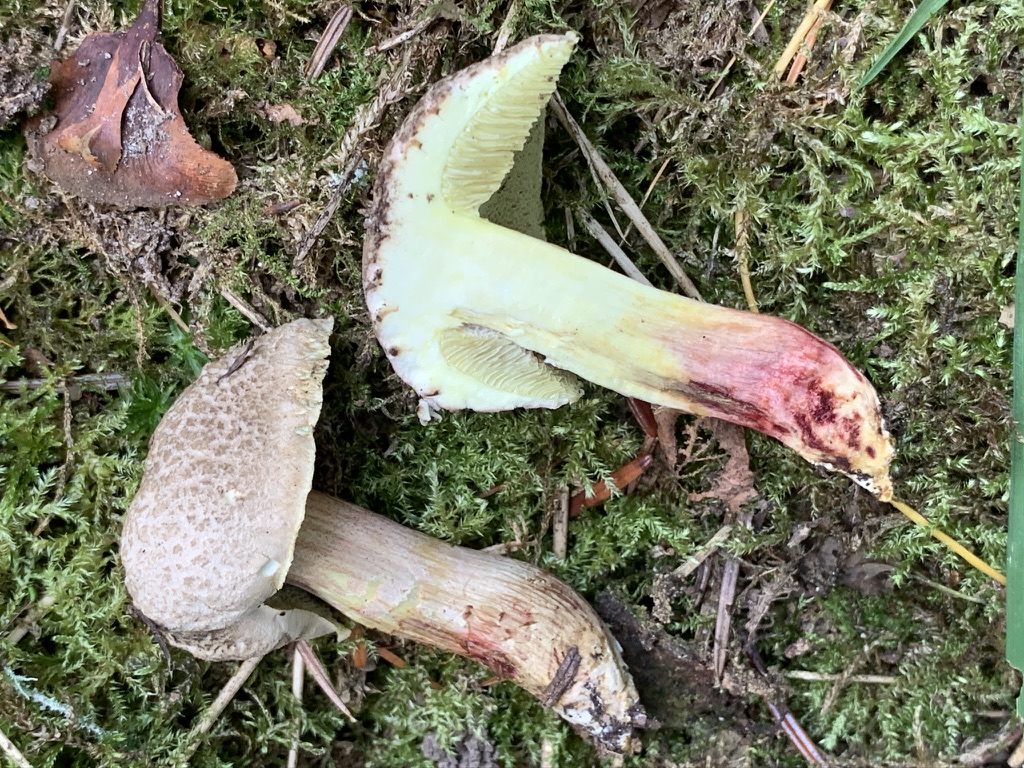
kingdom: Fungi
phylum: Basidiomycota
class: Agaricomycetes
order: Boletales
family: Boletaceae
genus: Xerocomellus
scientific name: Xerocomellus chrysenteron
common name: rødsprukken rørhat
